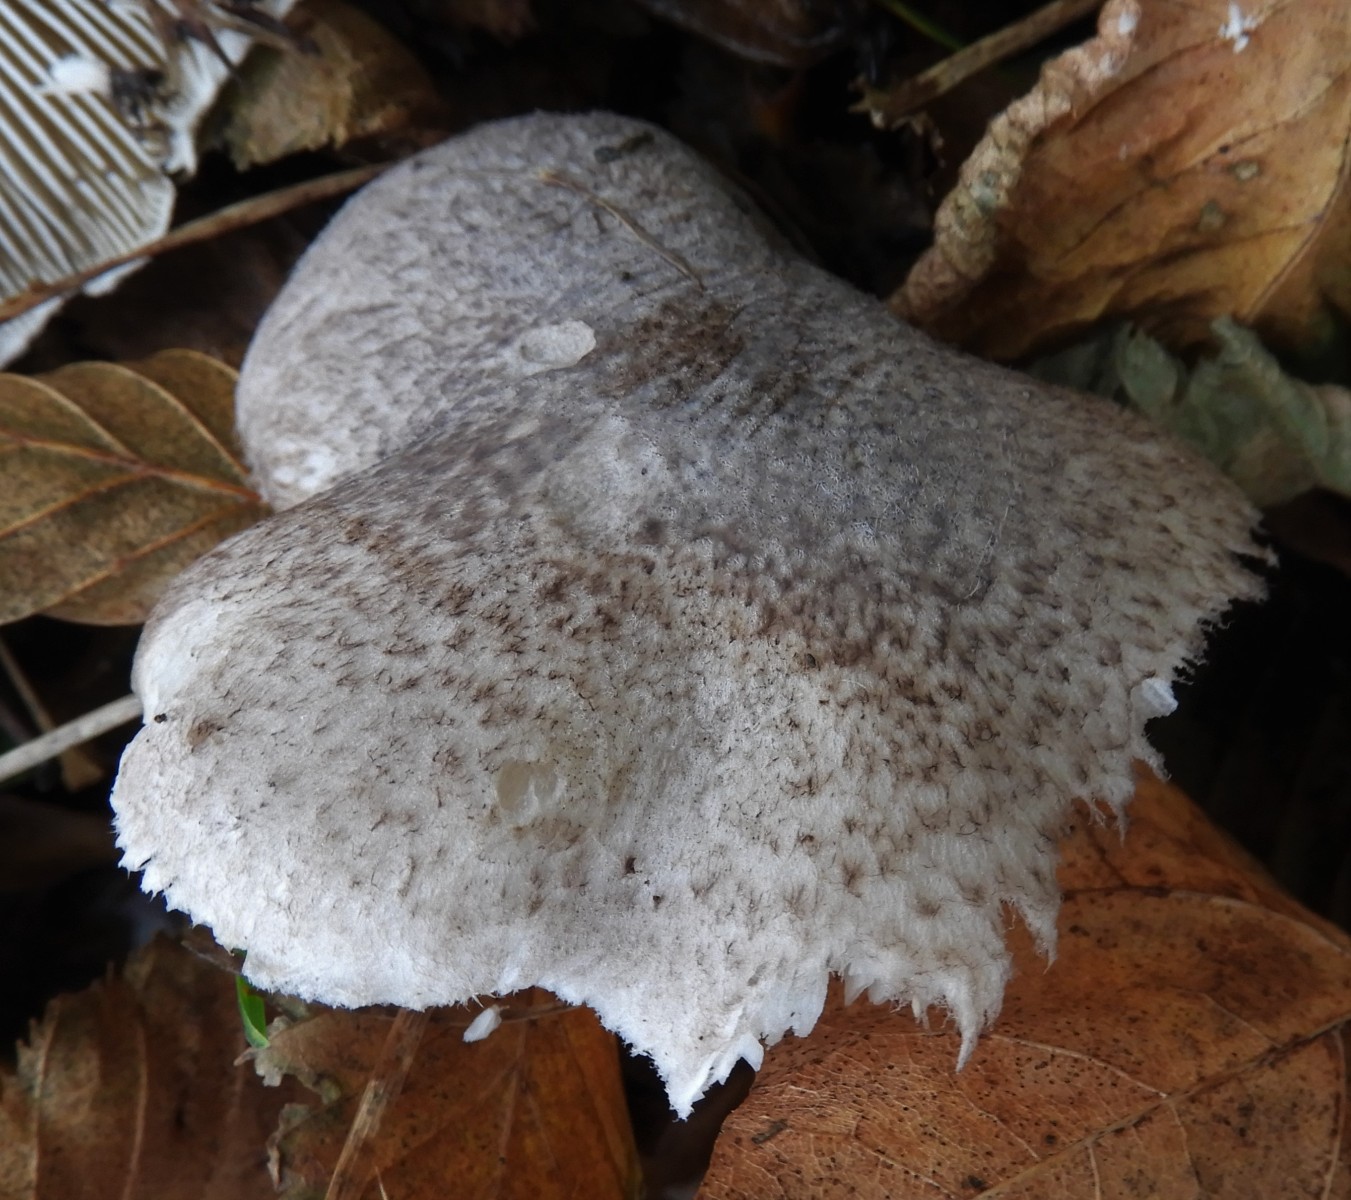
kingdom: Fungi
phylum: Basidiomycota
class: Agaricomycetes
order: Agaricales
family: Tricholomataceae
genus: Tricholoma
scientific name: Tricholoma scalpturatum
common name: gulplettet ridderhat
